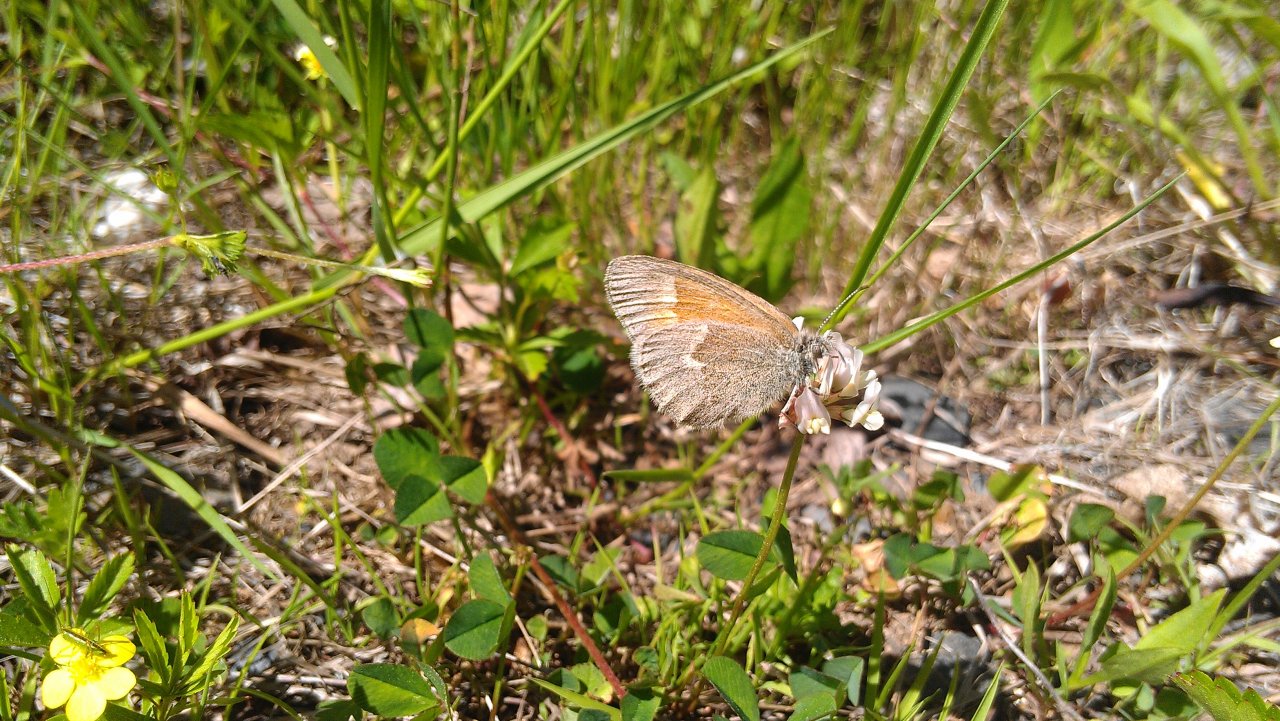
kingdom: Animalia
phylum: Arthropoda
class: Insecta
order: Lepidoptera
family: Nymphalidae
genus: Coenonympha
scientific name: Coenonympha tullia
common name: Large Heath
